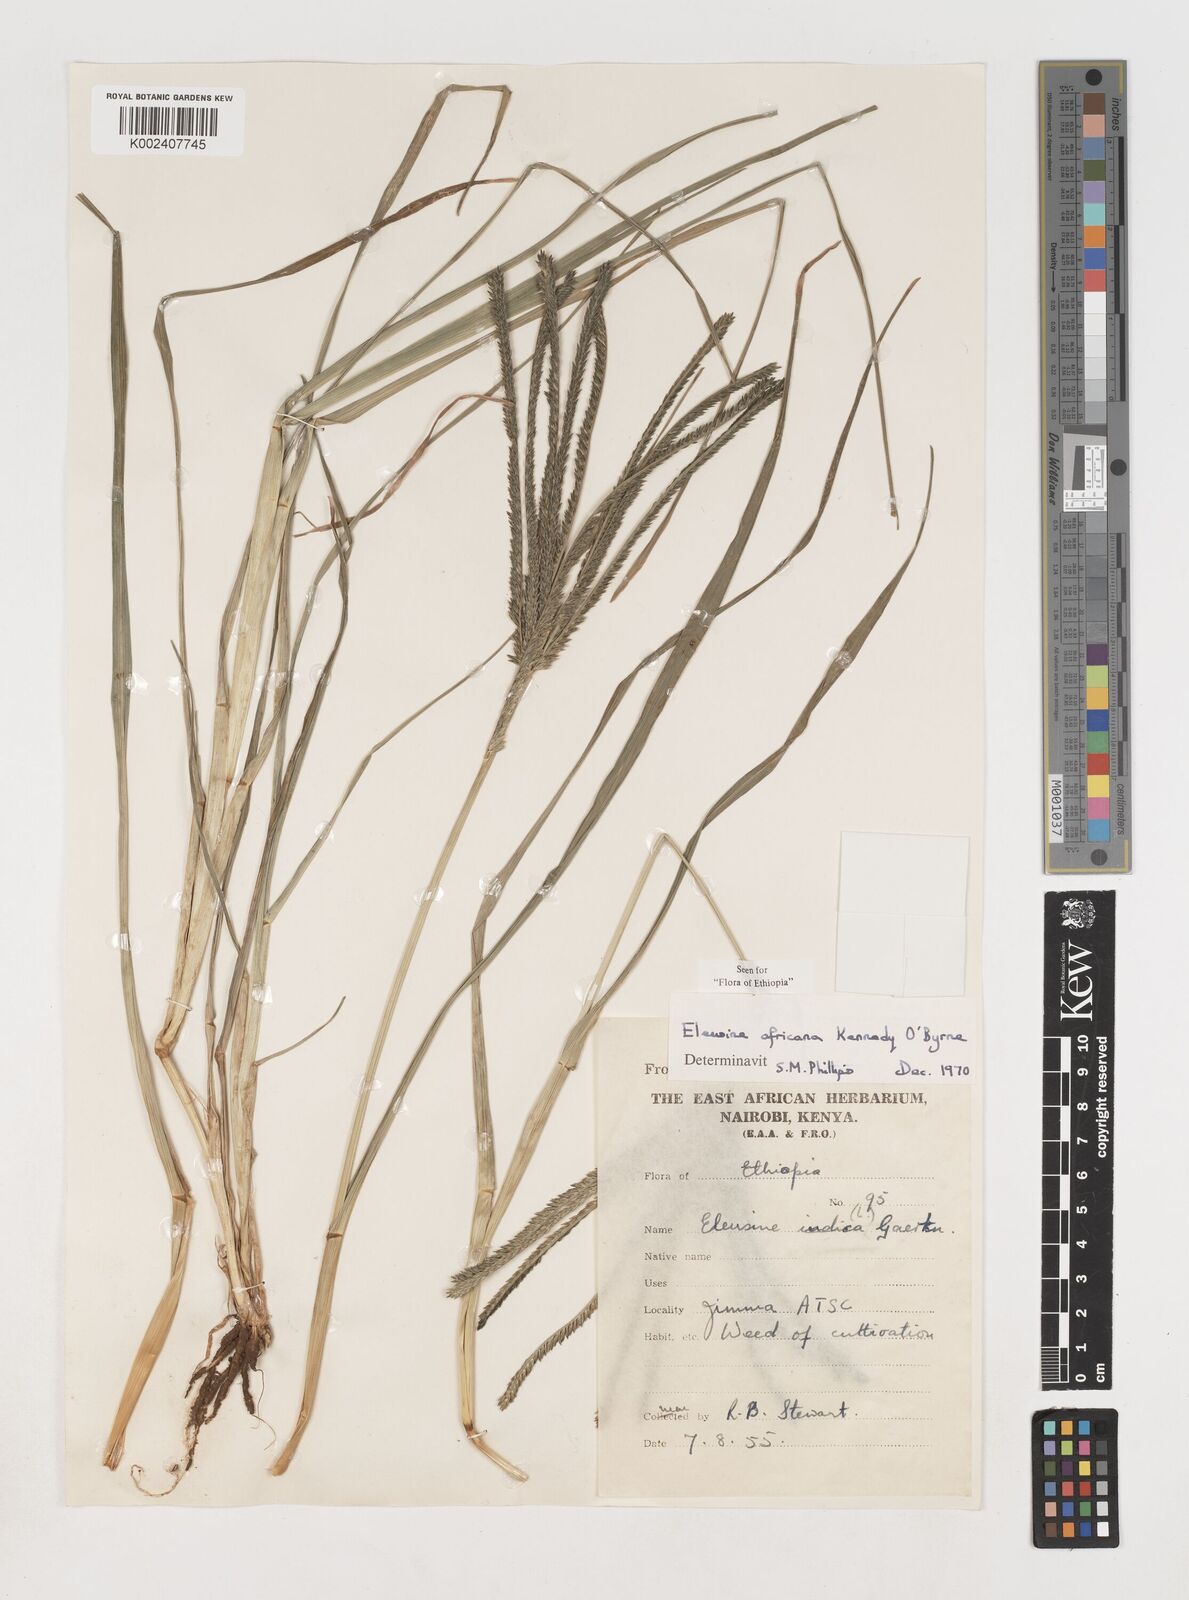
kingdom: Plantae
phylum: Tracheophyta
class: Liliopsida
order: Poales
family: Poaceae
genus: Eleusine
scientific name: Eleusine africana
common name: Wild african finger millet
